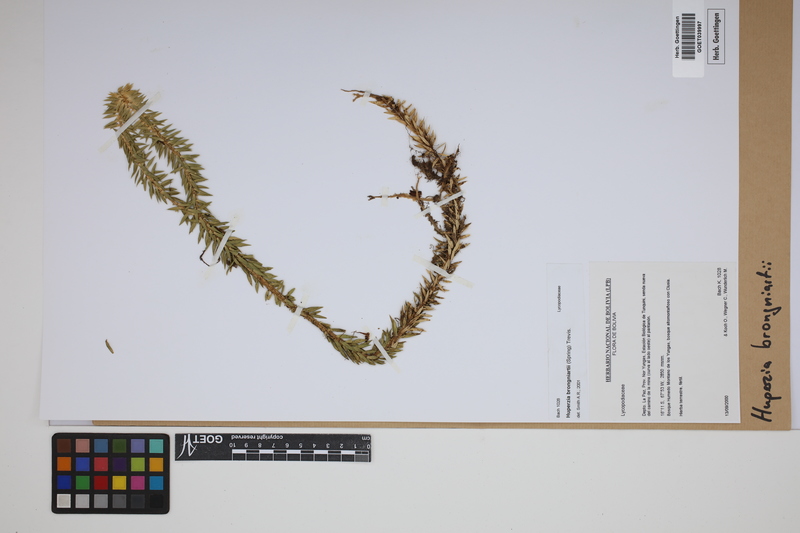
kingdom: Plantae
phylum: Tracheophyta
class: Lycopodiopsida
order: Lycopodiales
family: Lycopodiaceae
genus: Phlegmariurus
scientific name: Phlegmariurus brongniartii
